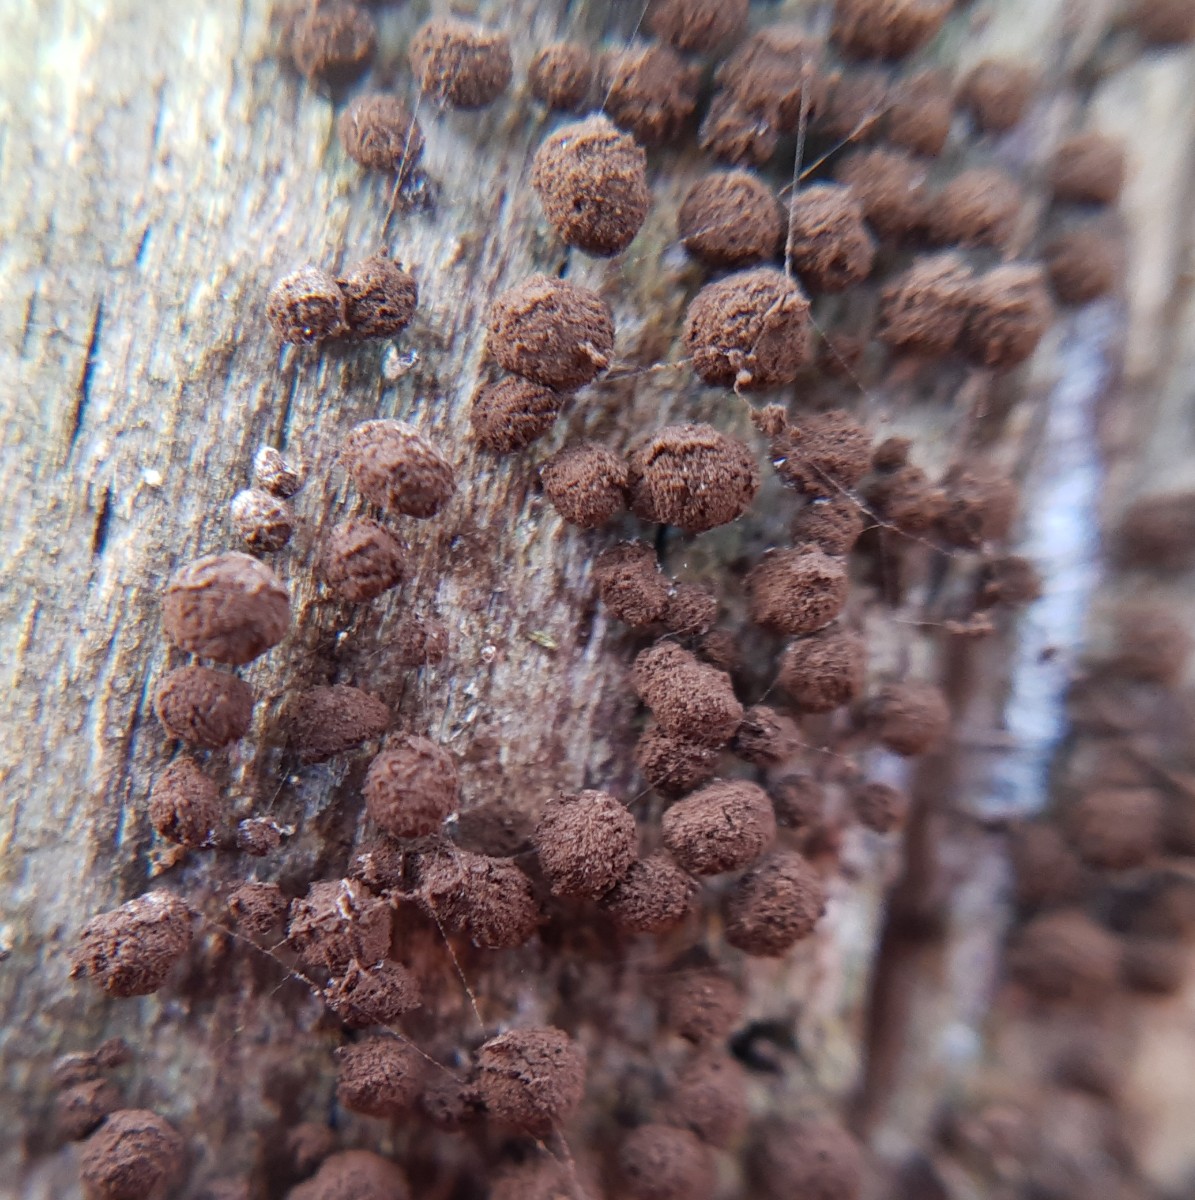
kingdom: Fungi
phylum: Basidiomycota
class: Atractiellomycetes
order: Atractiellales
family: Phleogenaceae
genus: Phleogena
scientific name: Phleogena faginea
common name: pudderkølle
